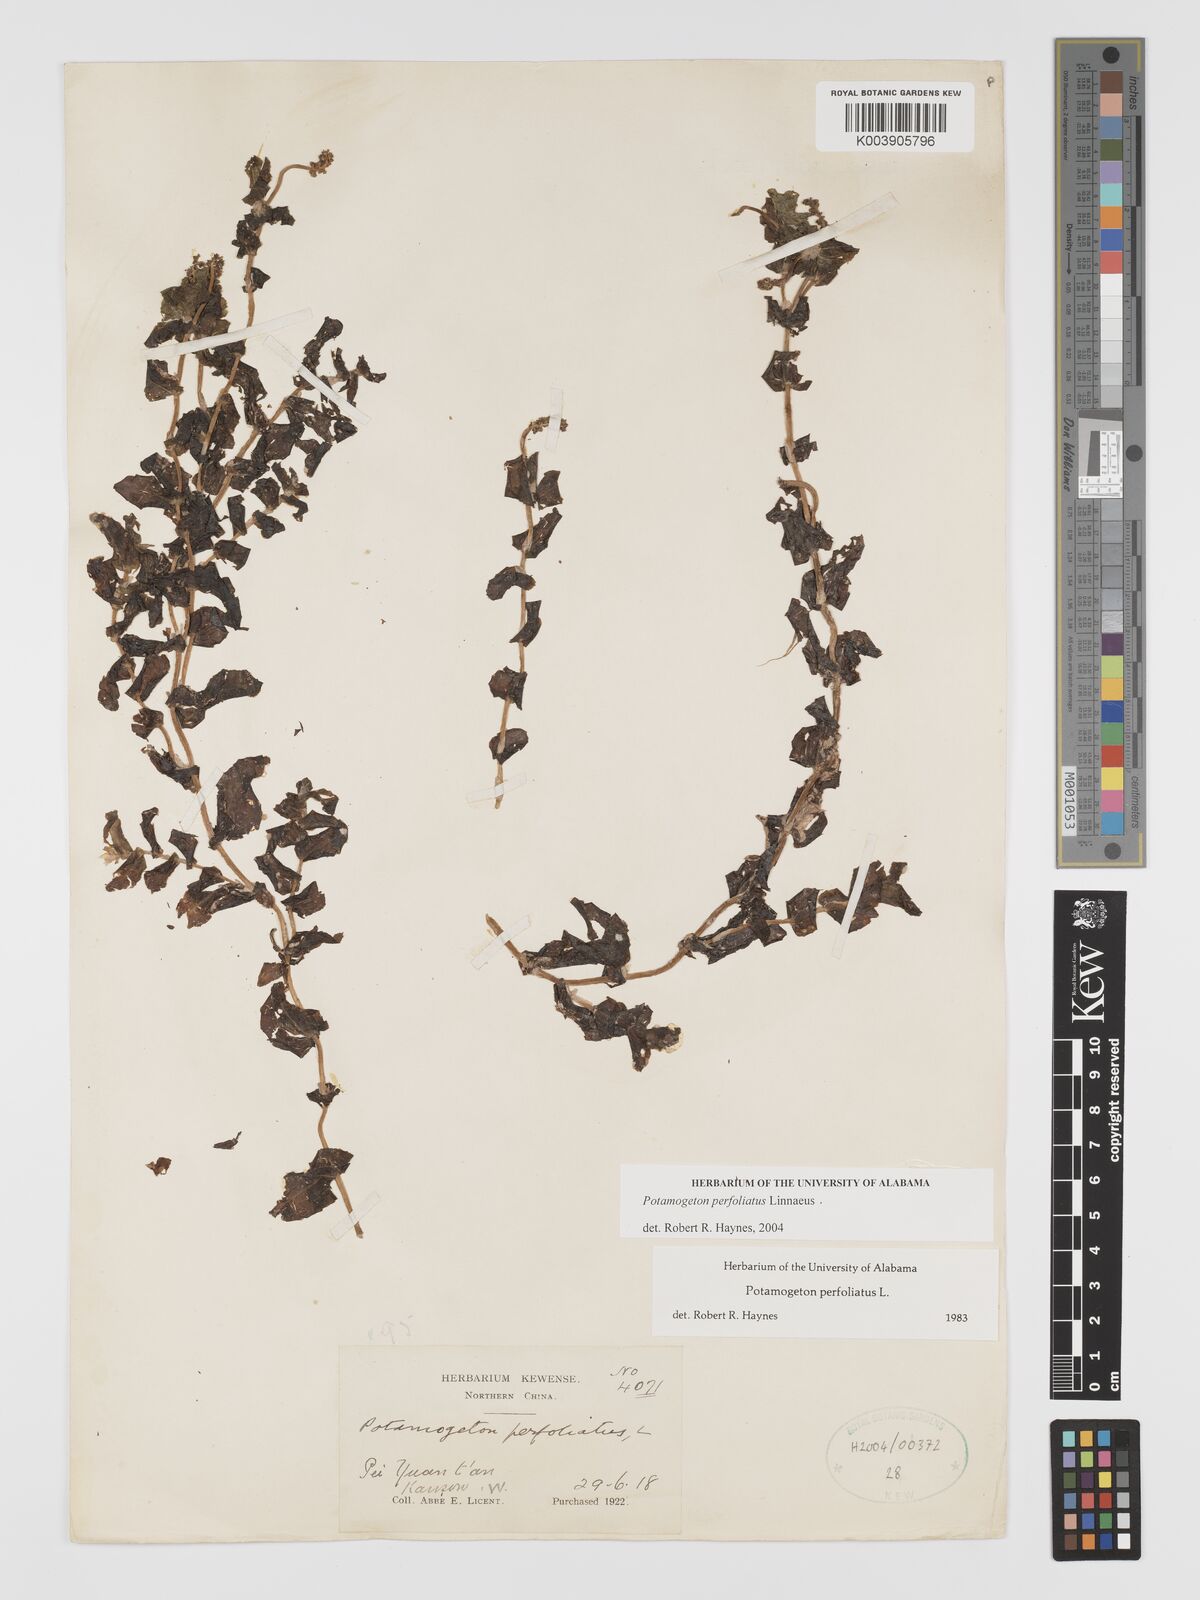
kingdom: Plantae
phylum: Tracheophyta
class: Liliopsida
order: Alismatales
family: Potamogetonaceae
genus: Potamogeton
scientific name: Potamogeton perfoliatus
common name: Perfoliate pondweed
